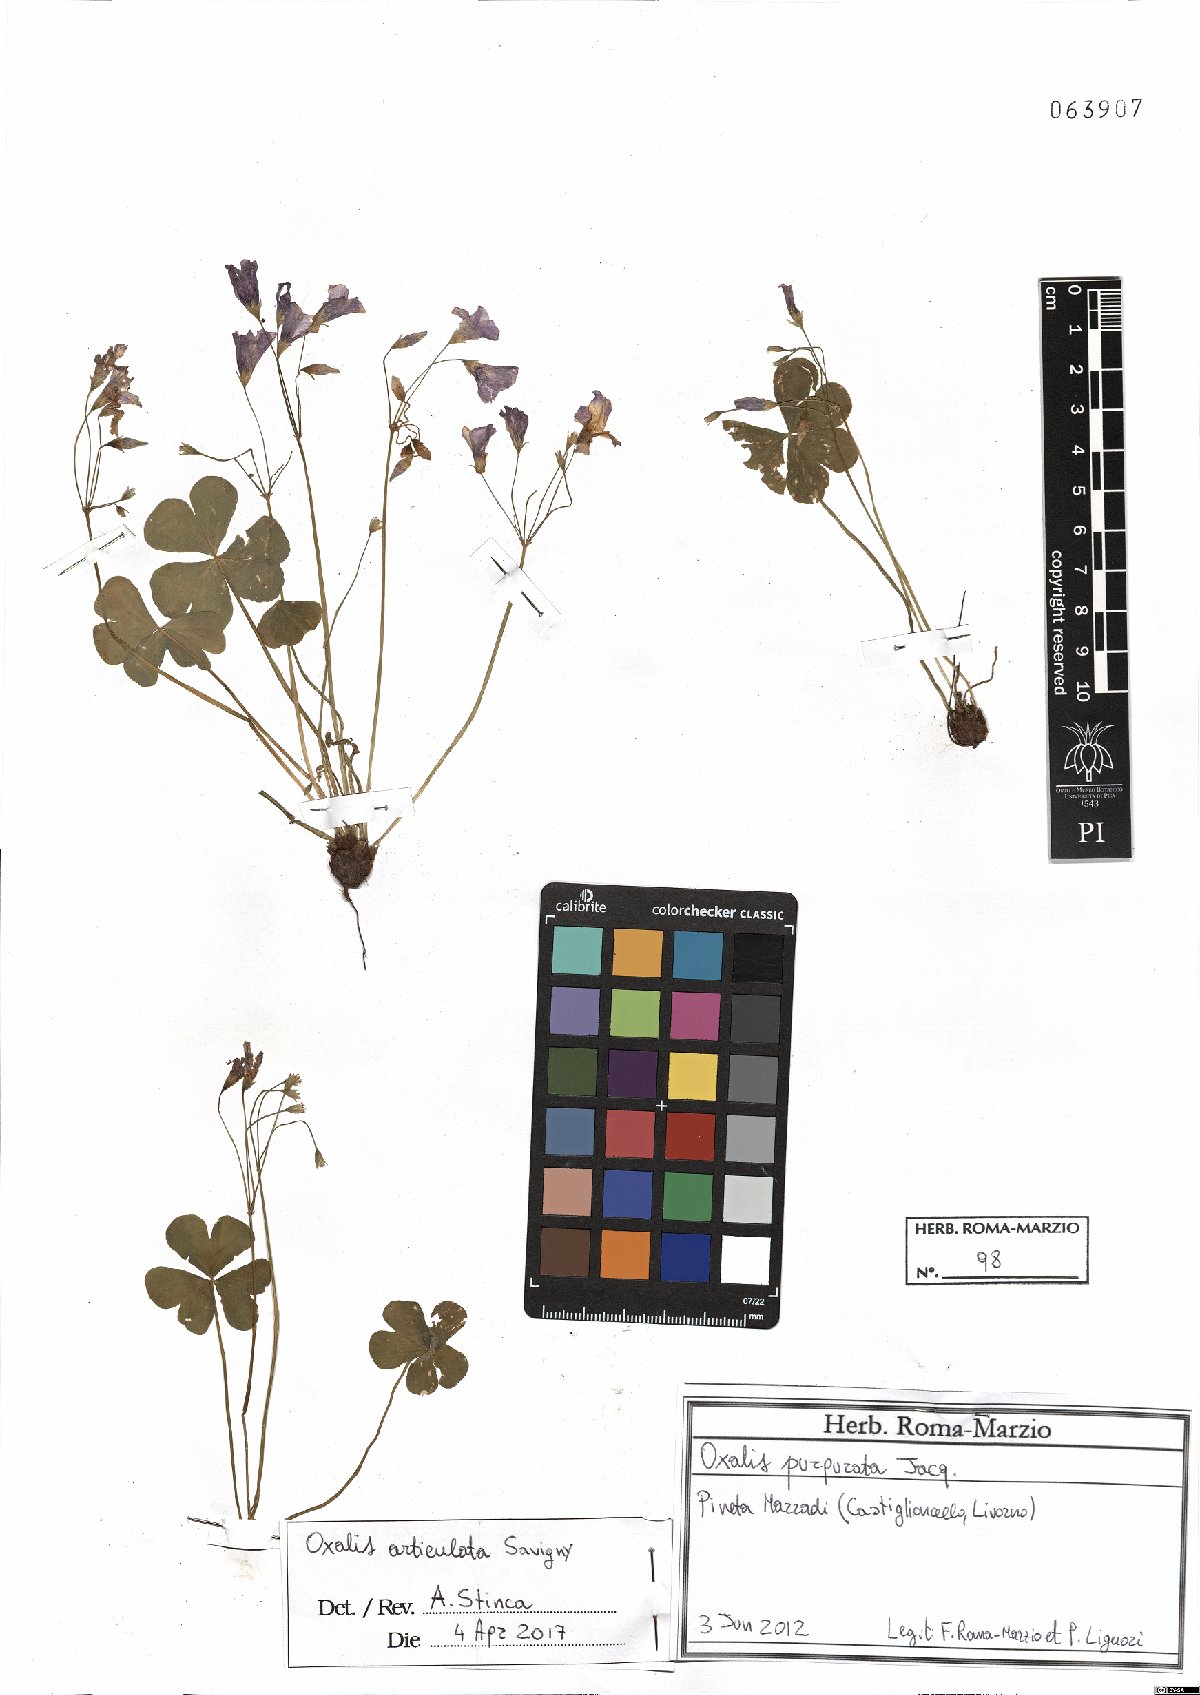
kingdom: Plantae
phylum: Tracheophyta
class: Magnoliopsida
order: Oxalidales
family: Oxalidaceae
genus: Oxalis
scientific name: Oxalis articulata
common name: Pink-sorrel
